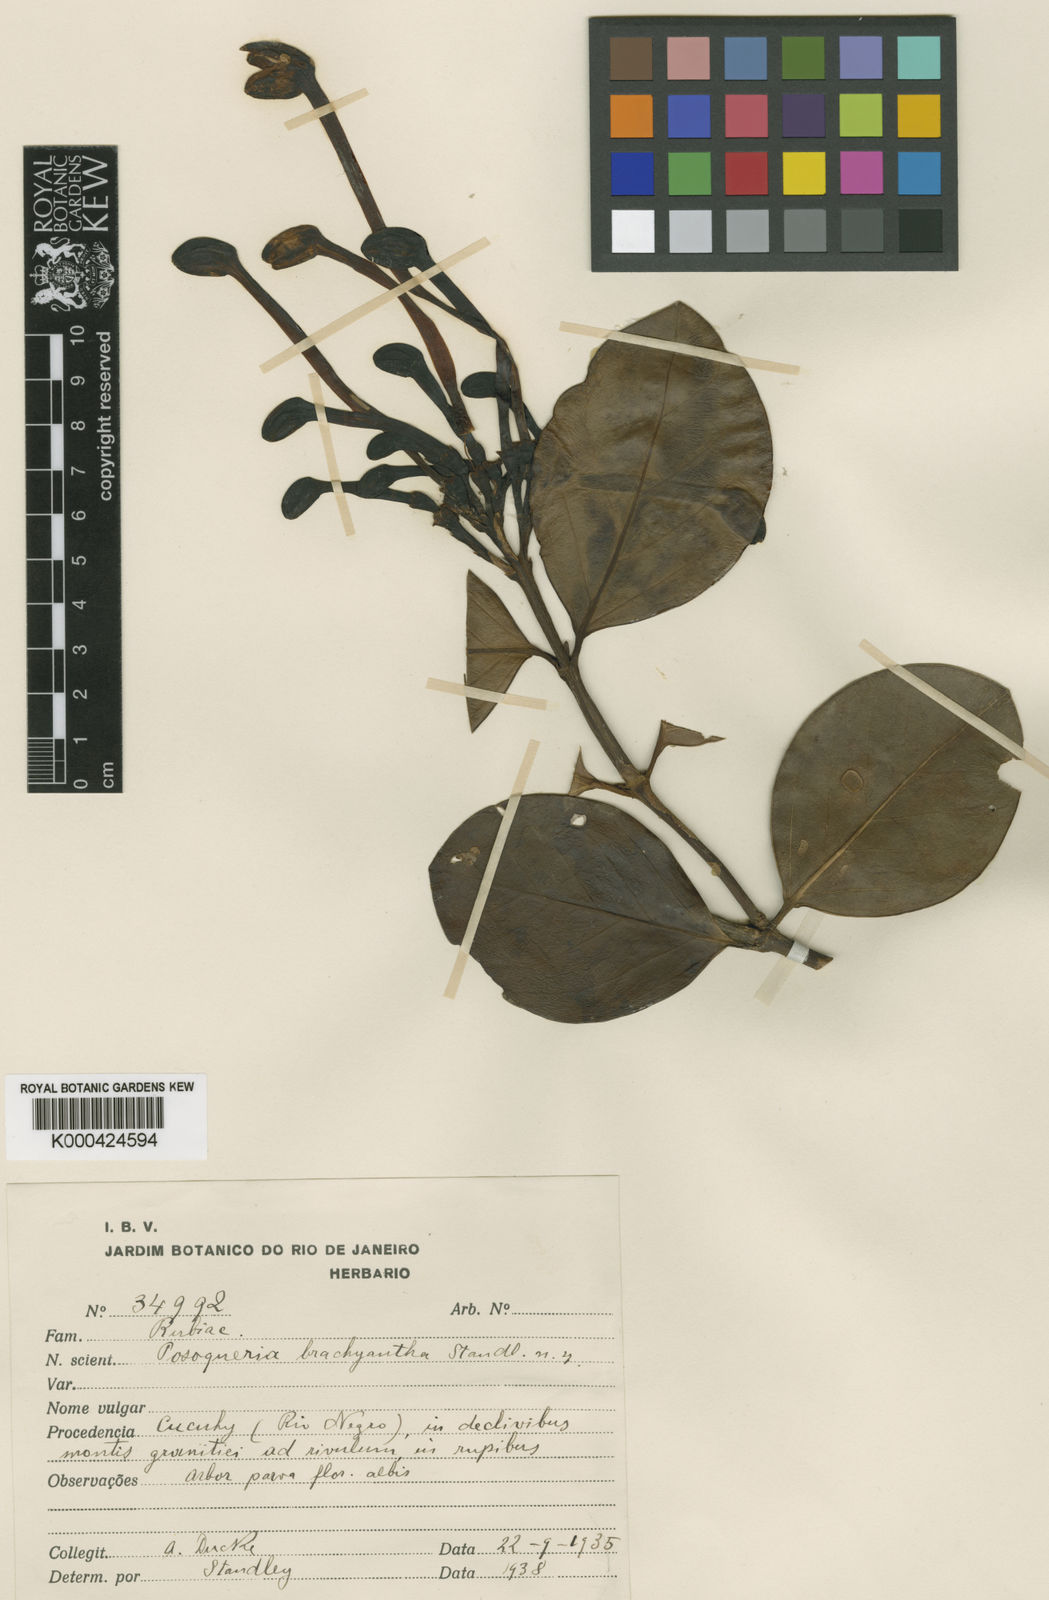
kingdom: Plantae
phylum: Tracheophyta
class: Magnoliopsida
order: Gentianales
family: Rubiaceae
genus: Posoqueria
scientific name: Posoqueria latifolia
